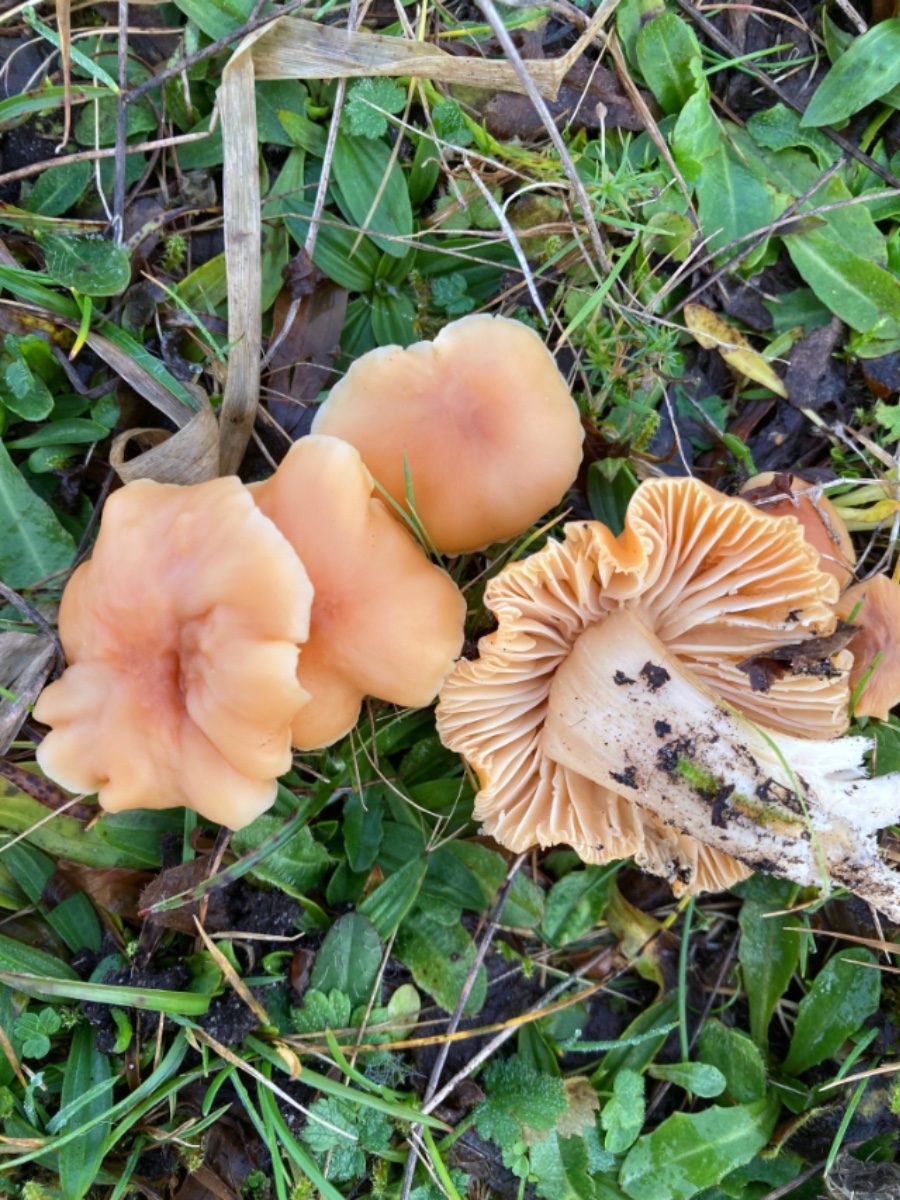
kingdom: Fungi
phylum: Basidiomycota
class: Agaricomycetes
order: Agaricales
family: Hygrophoraceae
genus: Cuphophyllus
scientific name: Cuphophyllus pratensis
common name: eng-vokshat
